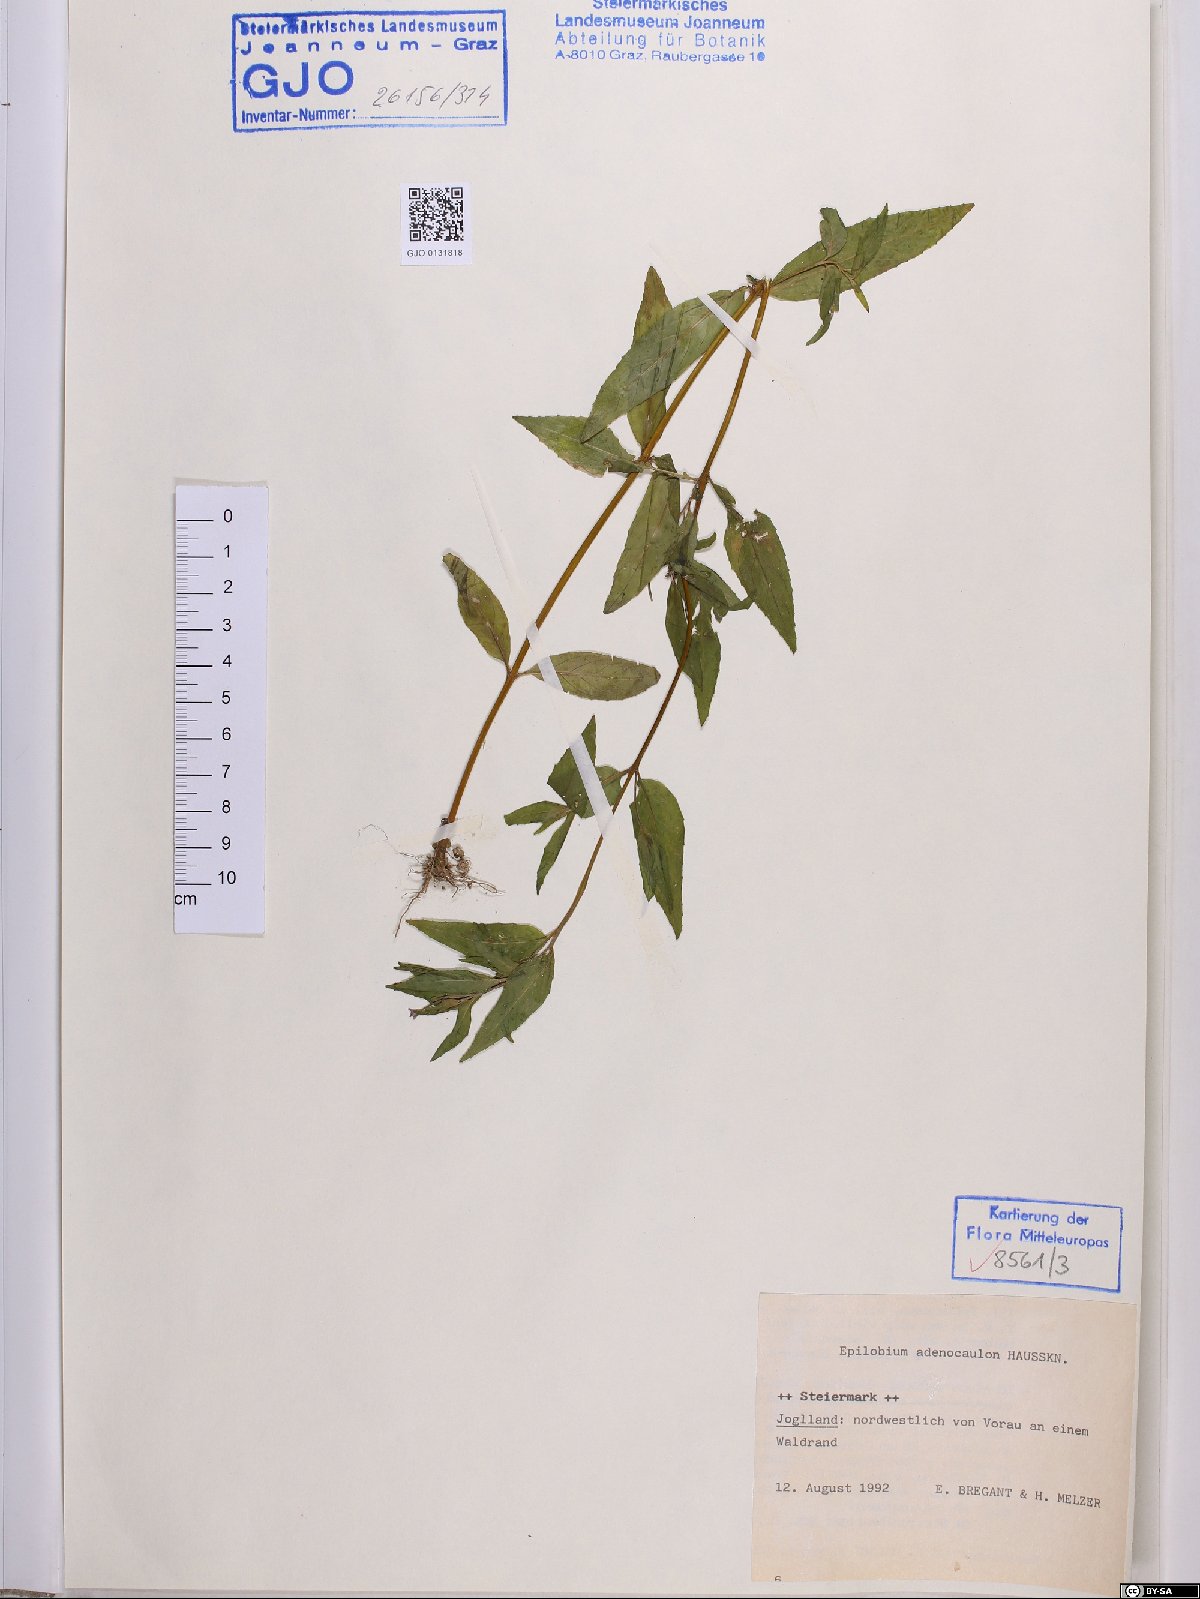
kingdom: Plantae
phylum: Tracheophyta
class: Magnoliopsida
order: Myrtales
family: Onagraceae
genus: Epilobium
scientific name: Epilobium ciliatum
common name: American willowherb
